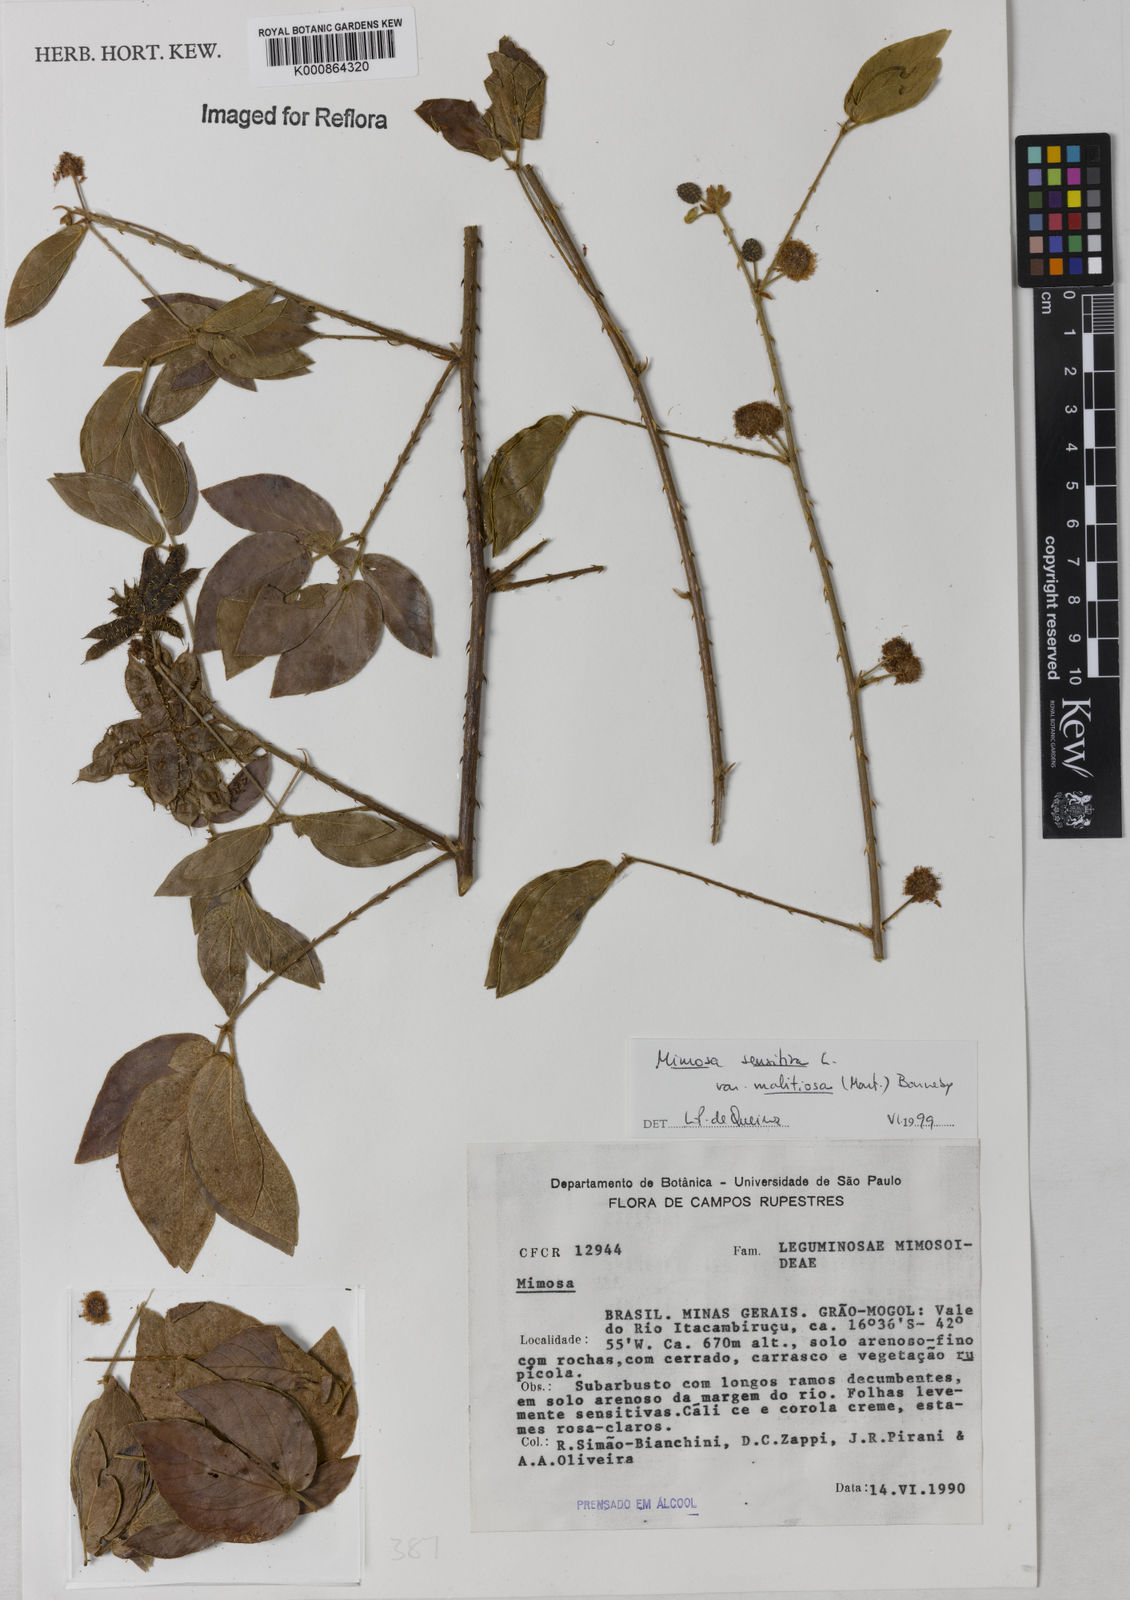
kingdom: Plantae
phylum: Tracheophyta
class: Magnoliopsida
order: Fabales
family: Fabaceae
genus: Mimosa
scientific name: Mimosa sensitiva
